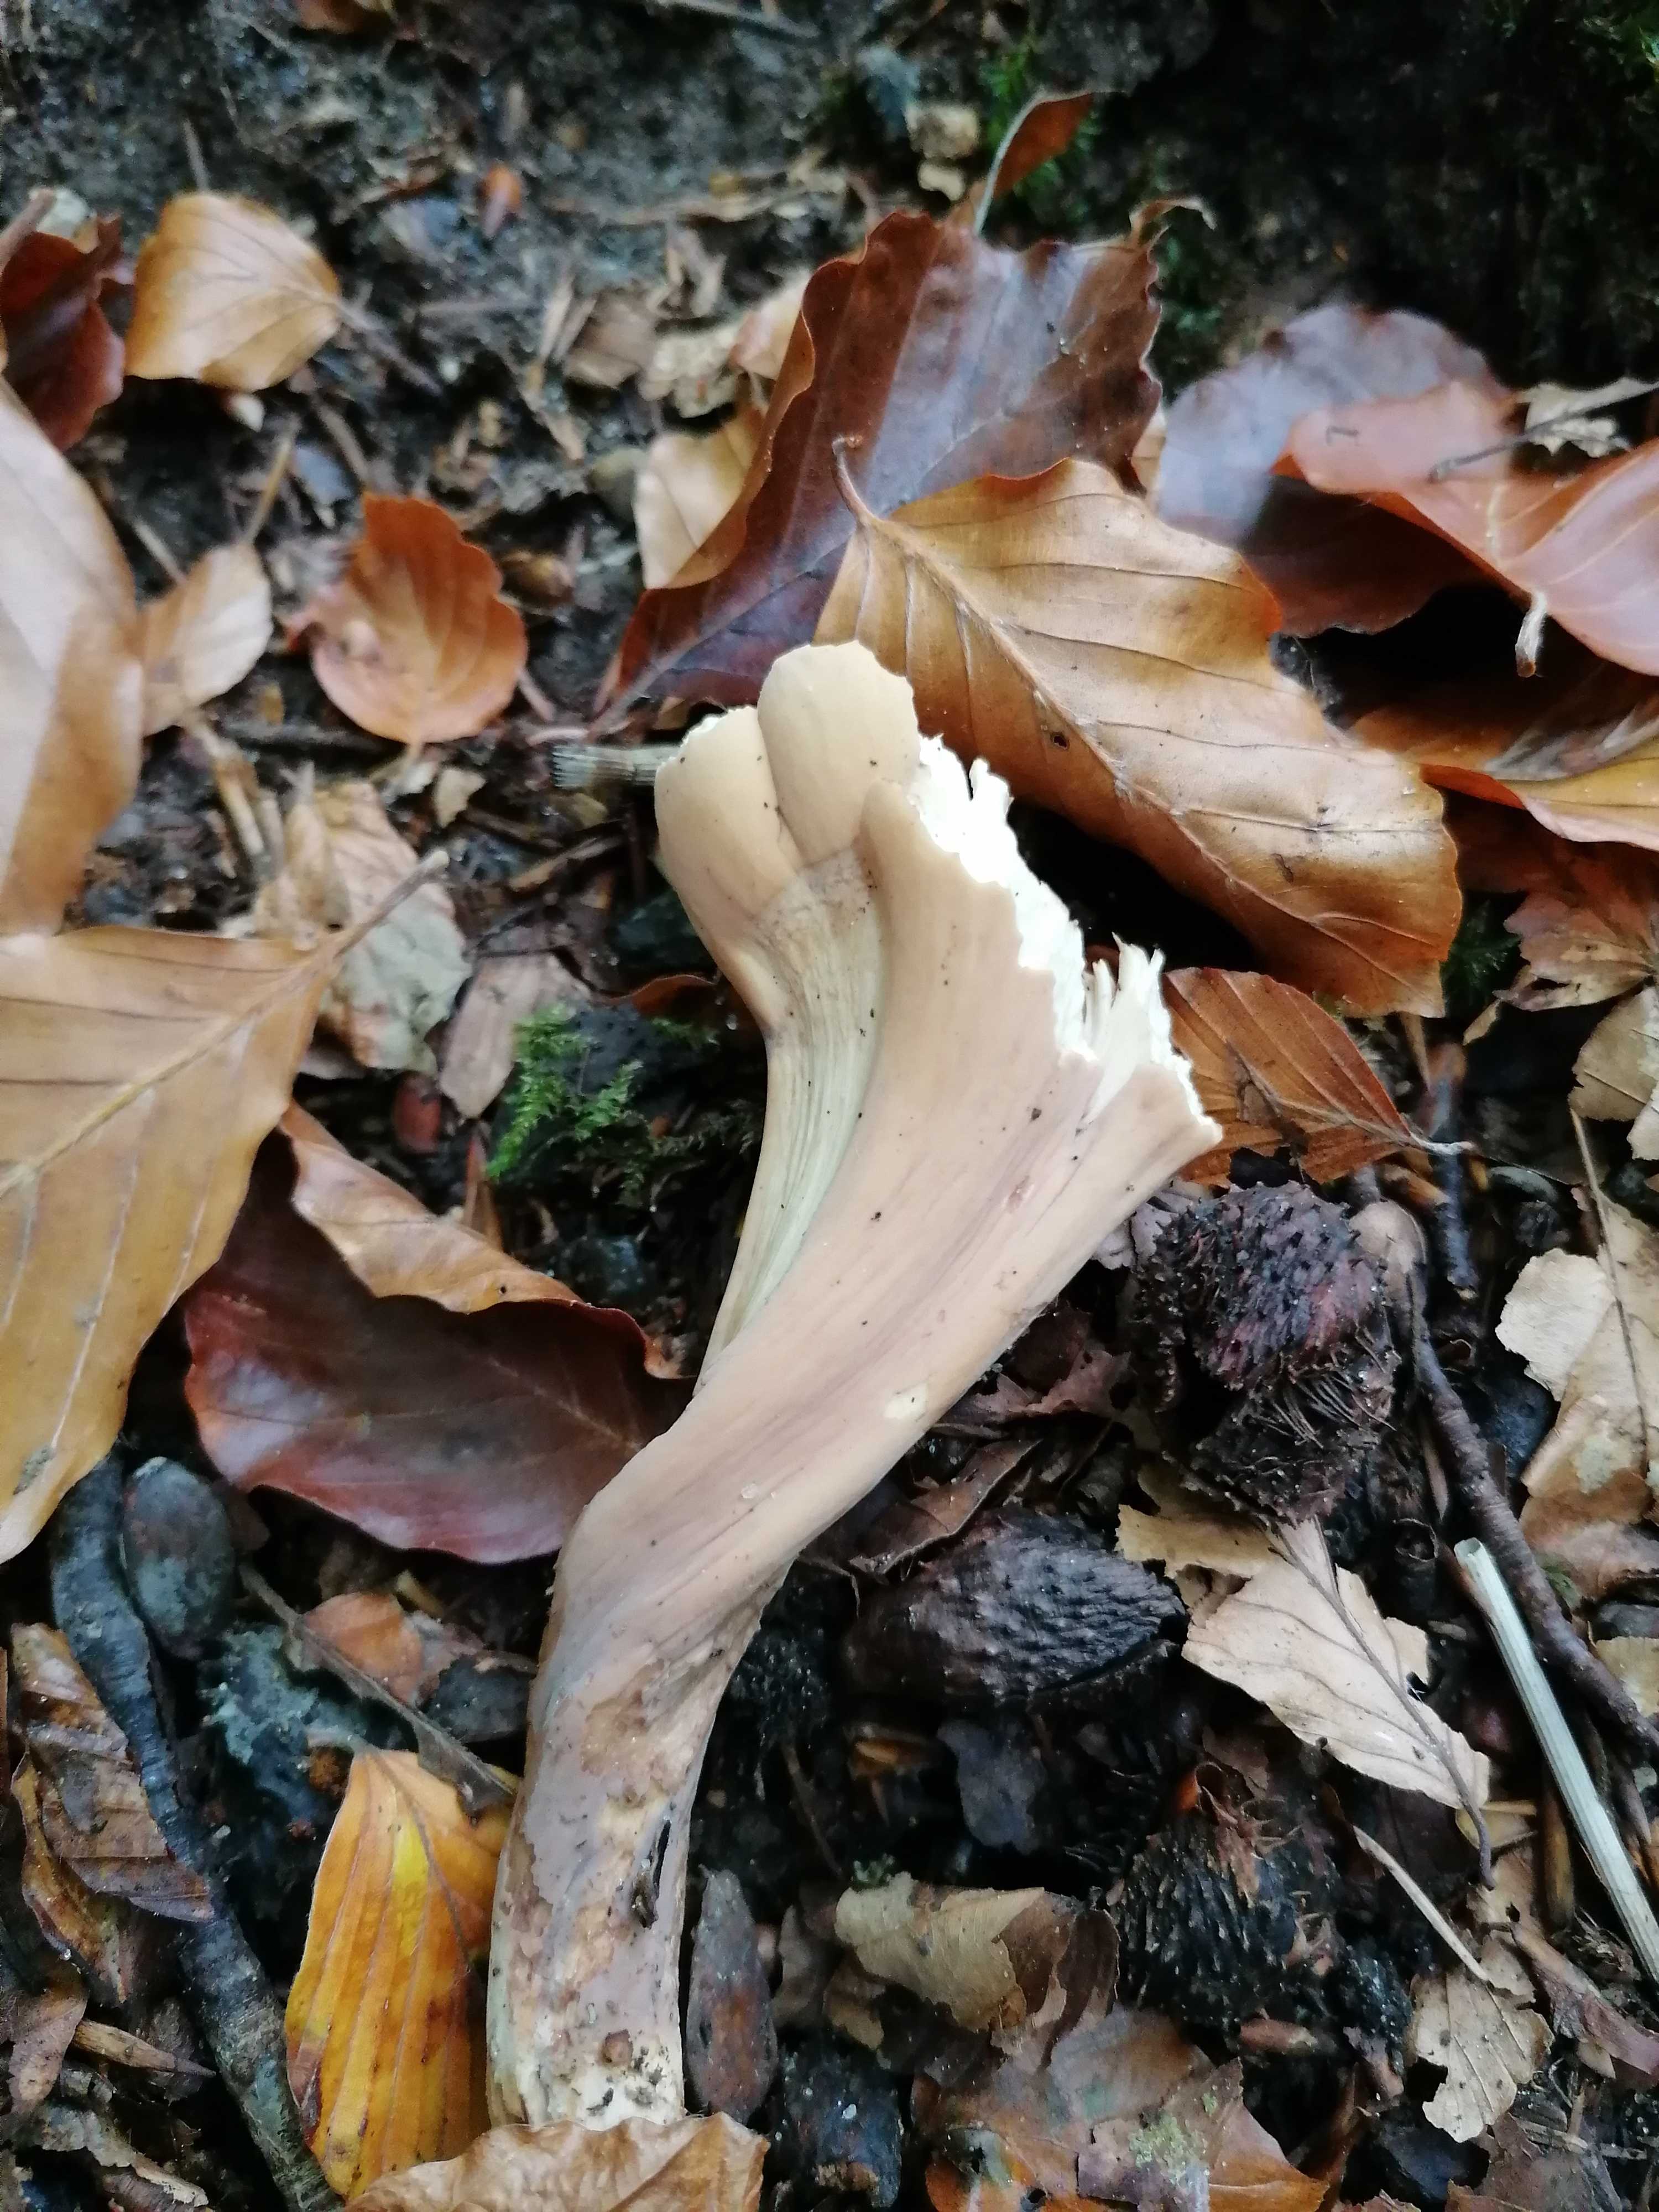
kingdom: Fungi
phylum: Basidiomycota
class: Agaricomycetes
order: Gomphales
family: Clavariadelphaceae
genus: Clavariadelphus
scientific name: Clavariadelphus pistillaris
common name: herkules-kæmpekølle
